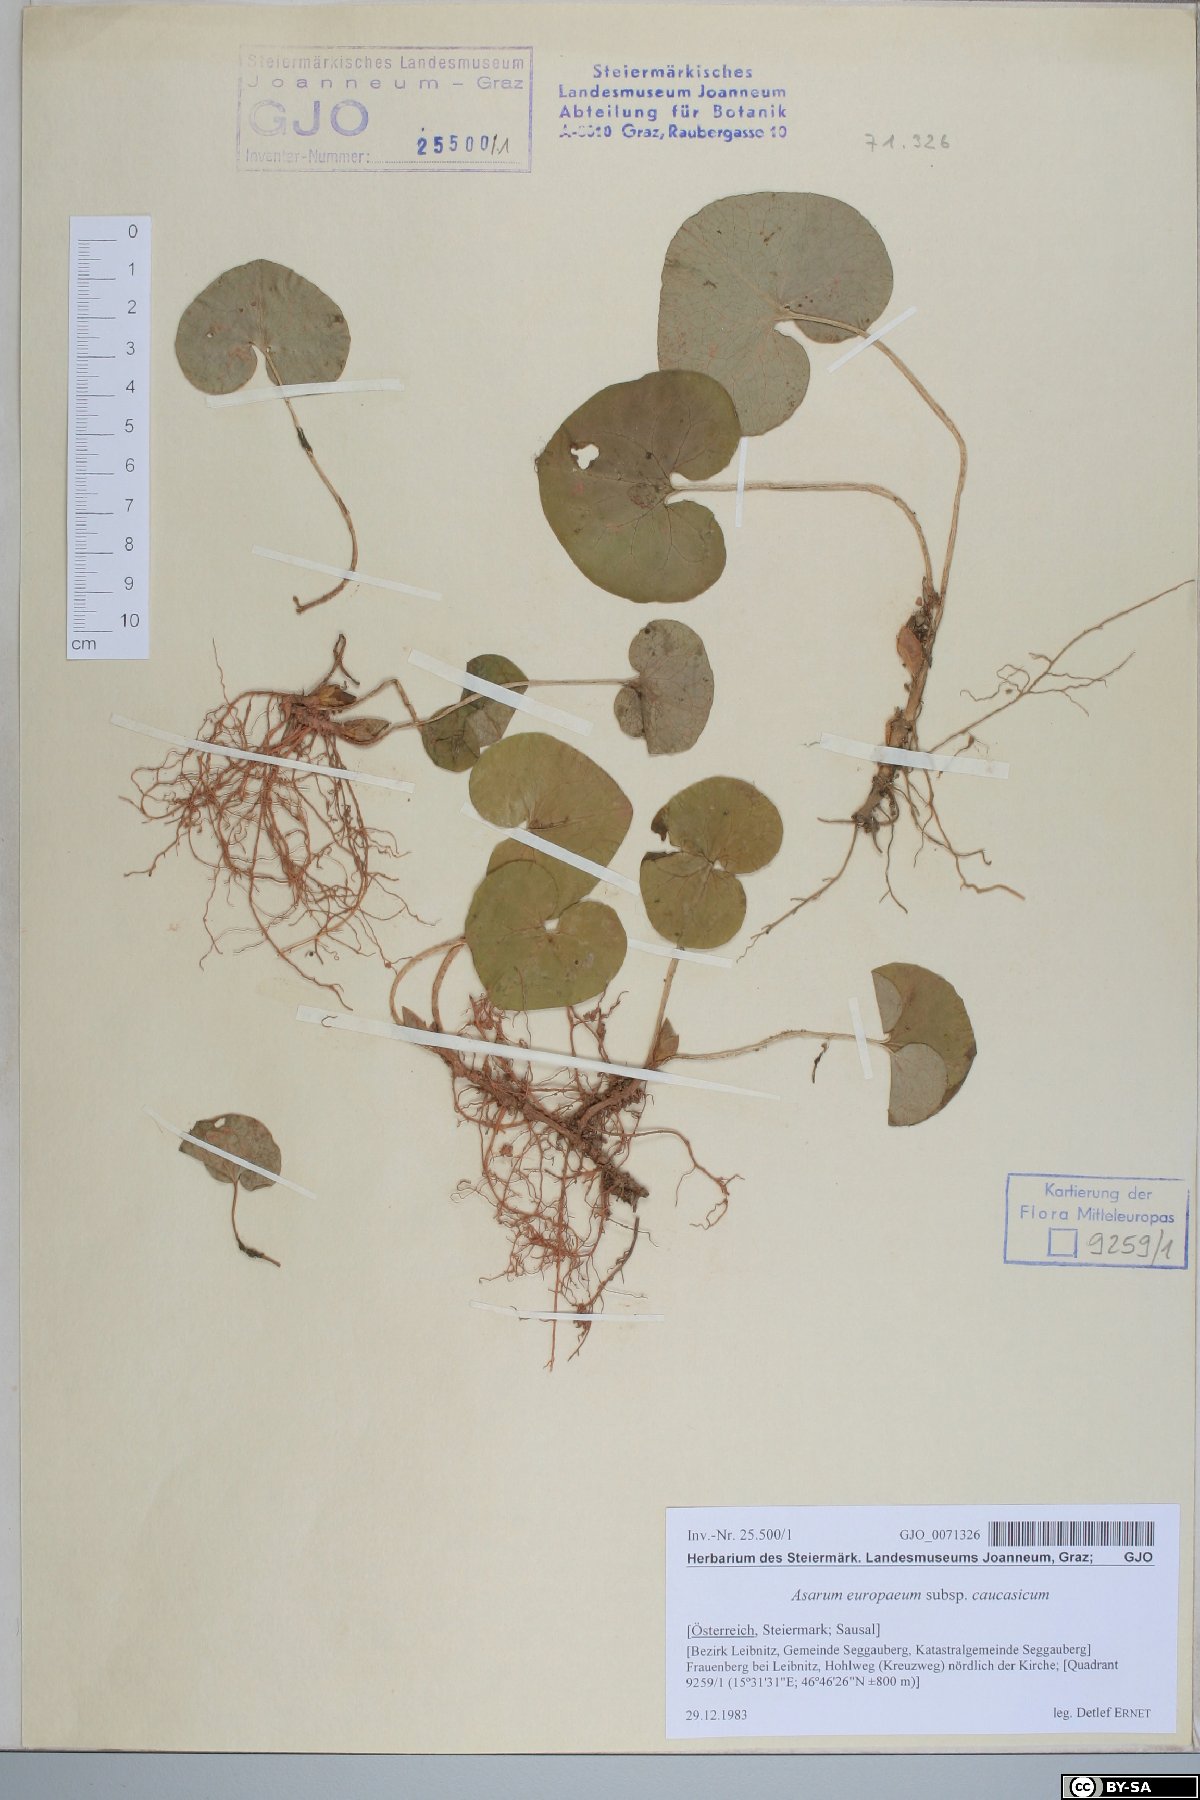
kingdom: Plantae
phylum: Tracheophyta
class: Magnoliopsida
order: Piperales
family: Aristolochiaceae
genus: Asarum
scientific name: Asarum europaeum
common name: Asarabacca
